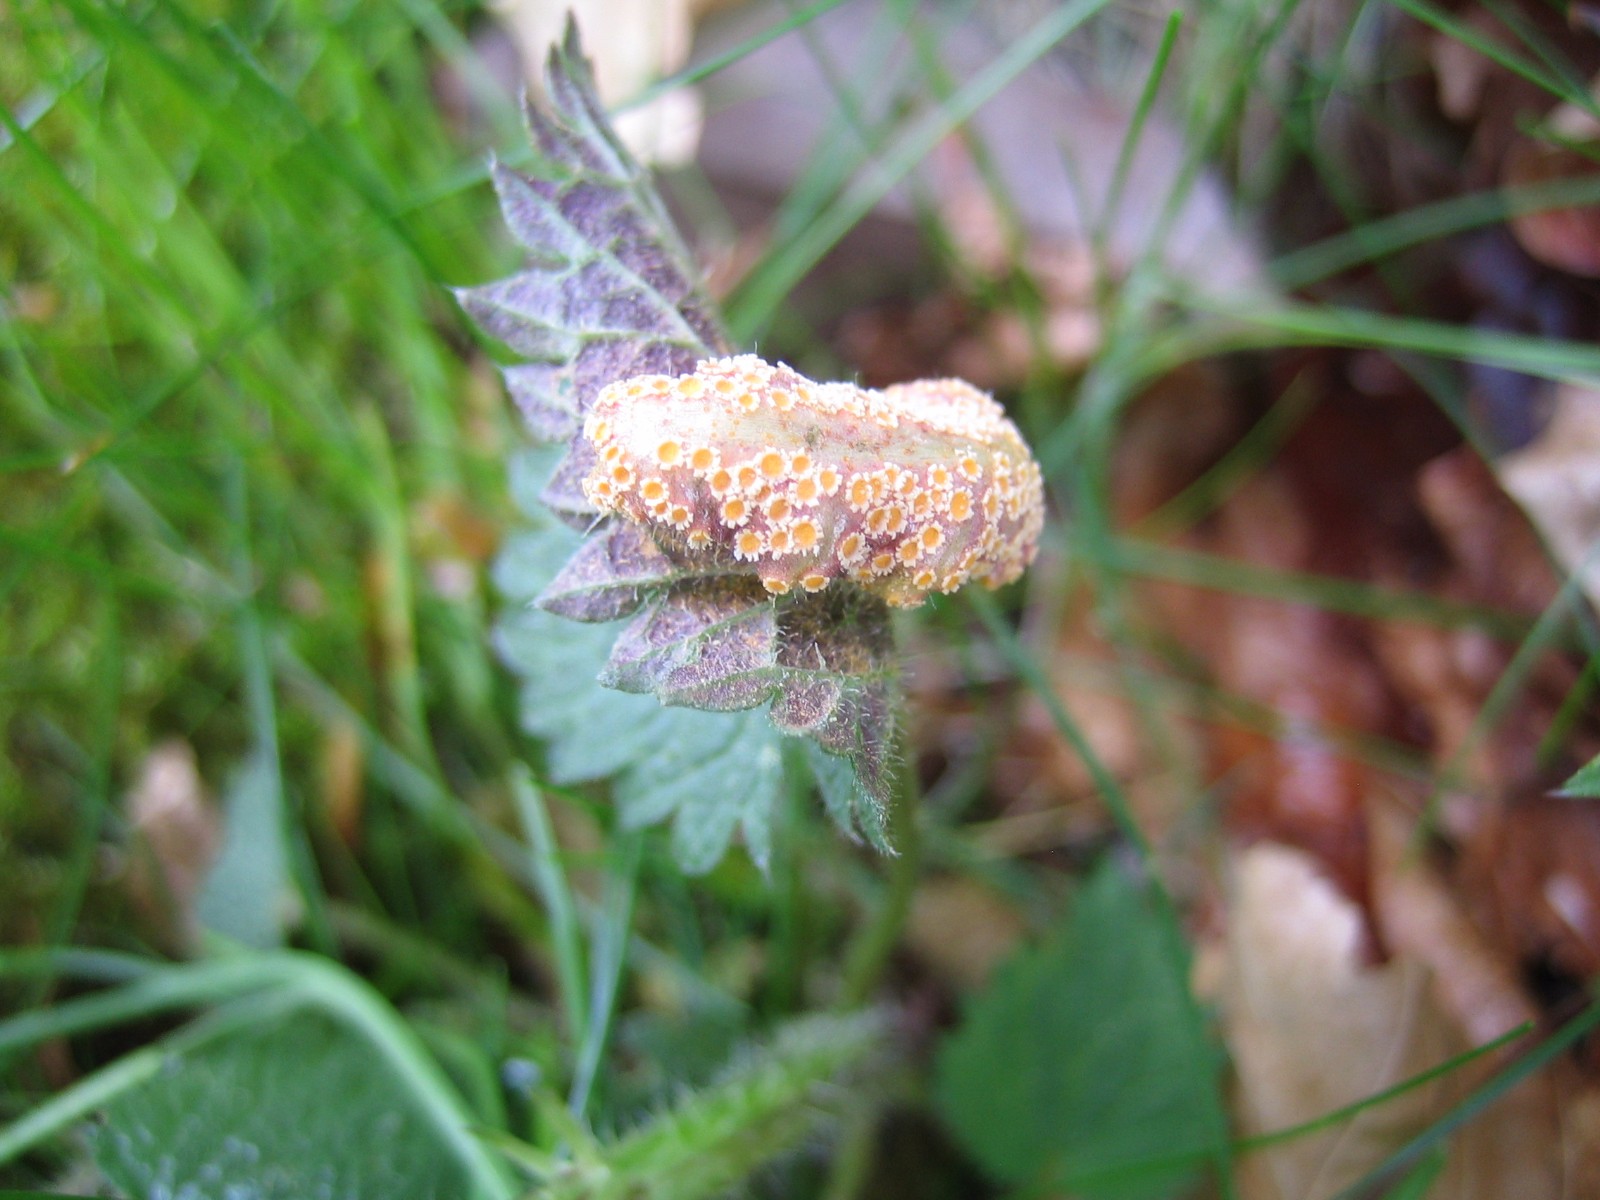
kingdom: Fungi
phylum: Basidiomycota
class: Pucciniomycetes
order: Pucciniales
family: Pucciniaceae
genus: Puccinia
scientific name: Puccinia urticata
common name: nældegalle-tvecellerust
